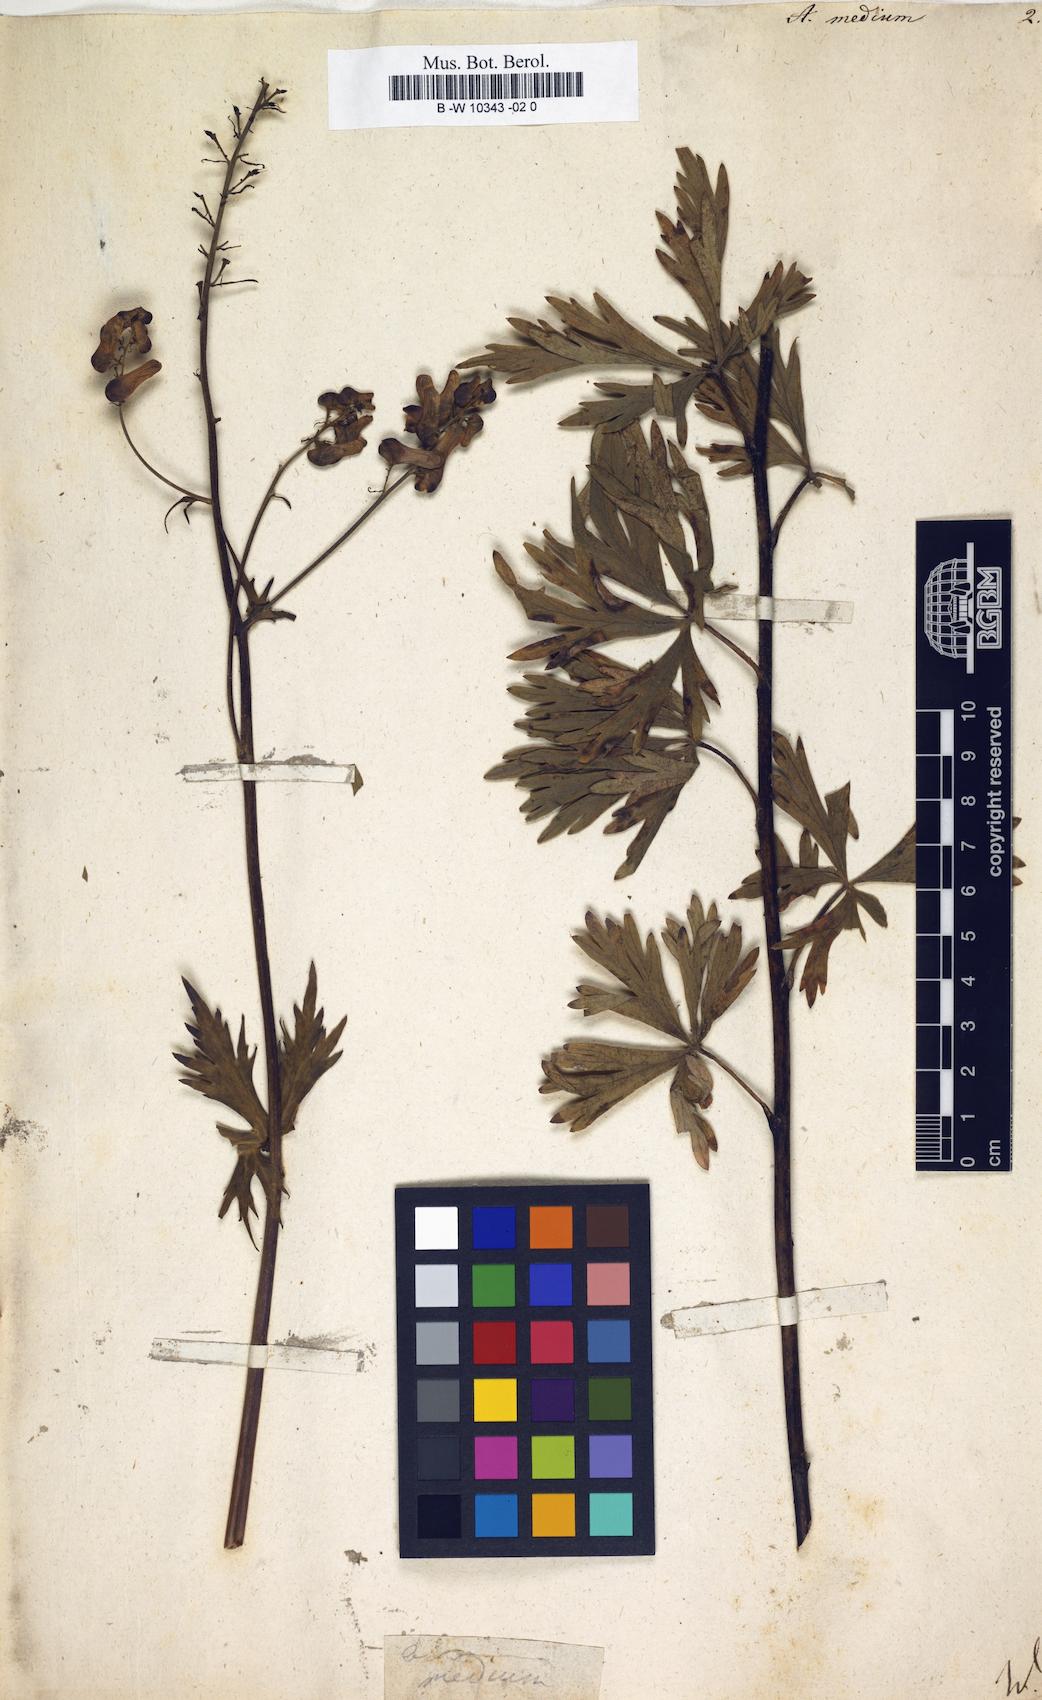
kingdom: Plantae
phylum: Tracheophyta
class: Magnoliopsida
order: Ranunculales
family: Ranunculaceae
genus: Aconitum
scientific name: Aconitum cammarum
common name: Hybrid monk's-hood
